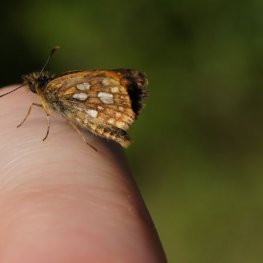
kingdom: Animalia
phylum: Arthropoda
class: Insecta
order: Lepidoptera
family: Hesperiidae
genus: Carterocephalus
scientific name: Carterocephalus palaemon
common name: Chequered Skipper
